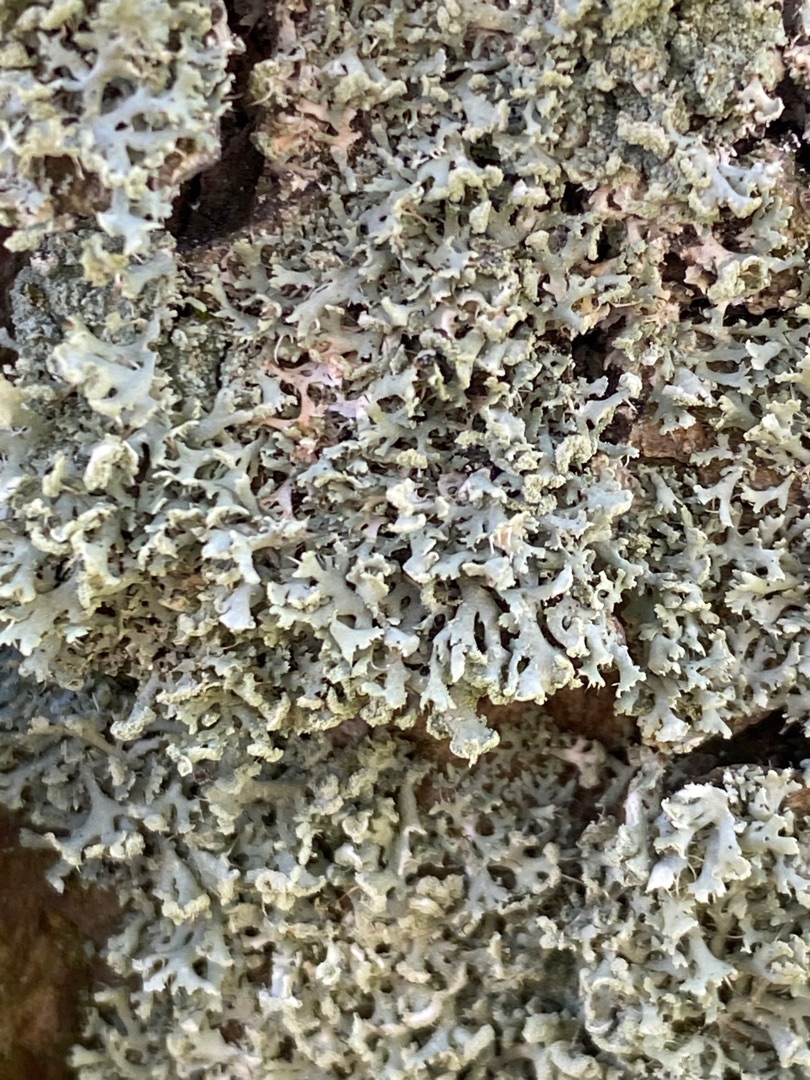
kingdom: Fungi
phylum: Ascomycota
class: Lecanoromycetes
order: Caliciales
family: Physciaceae
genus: Physcia
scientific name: Physcia tenella
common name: Spæd rosetlav
